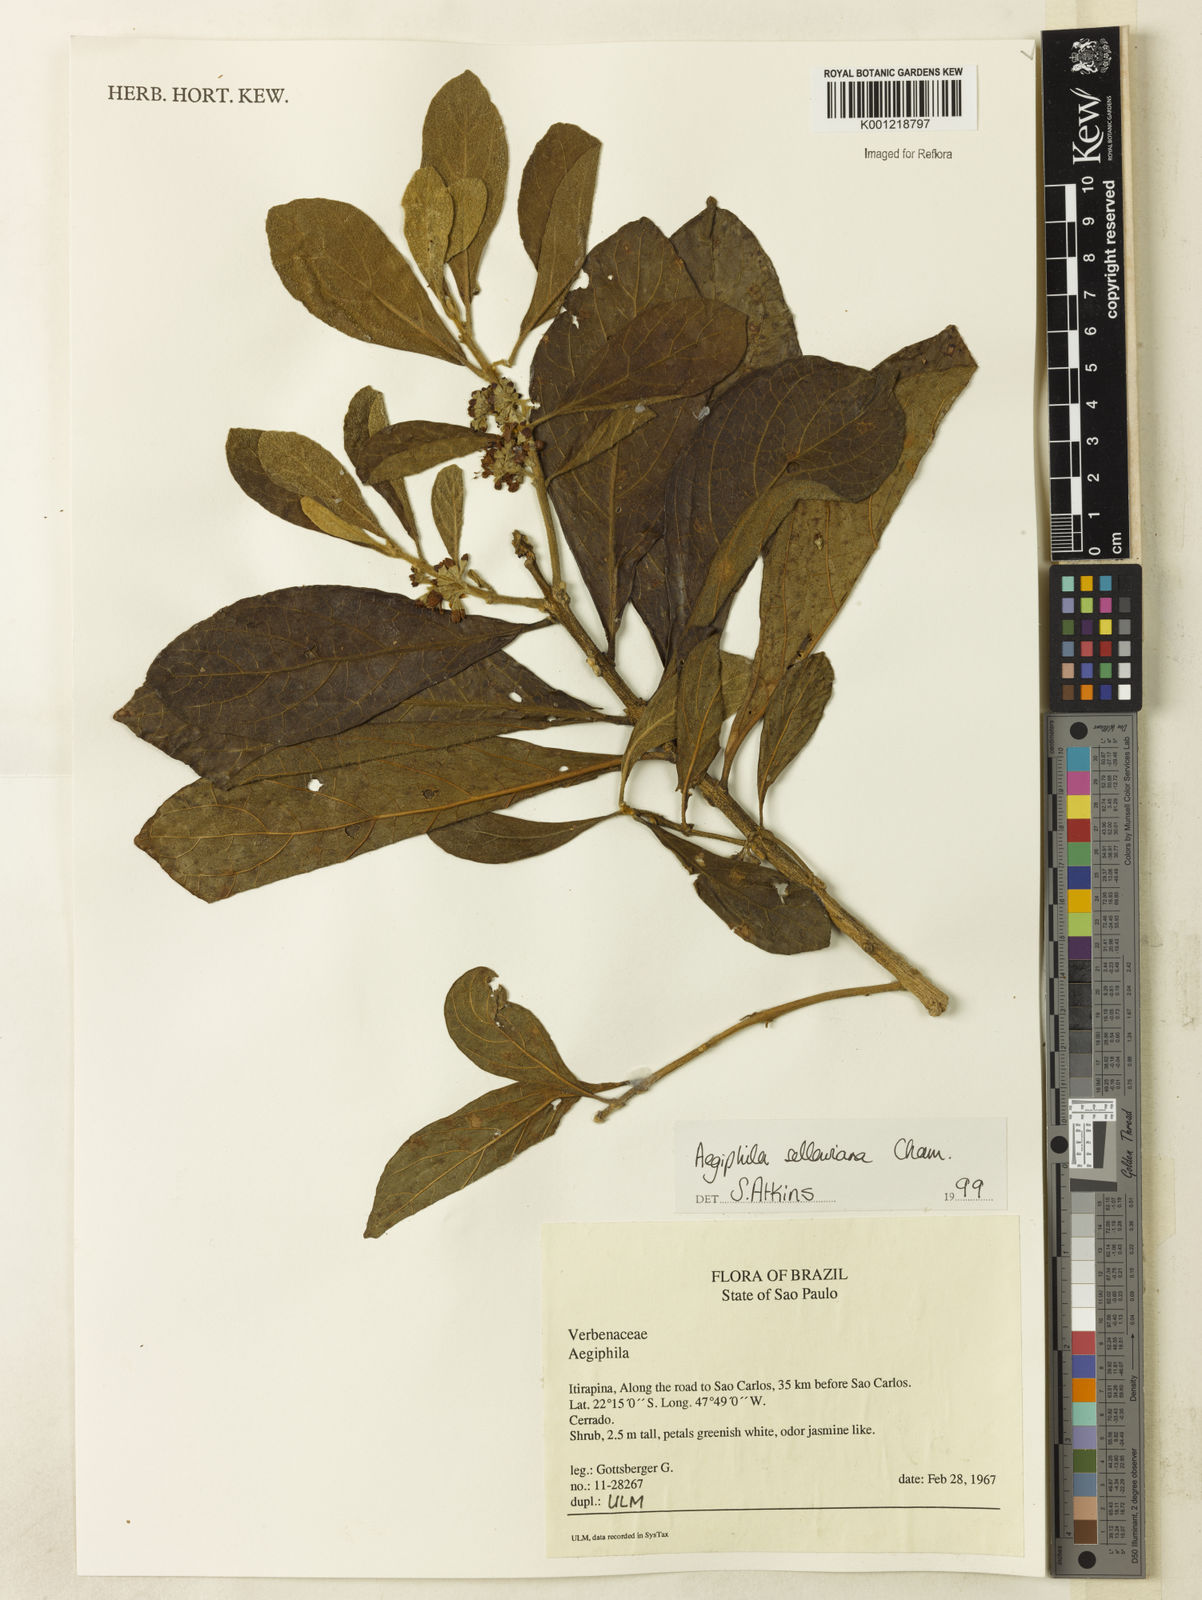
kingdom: Plantae
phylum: Tracheophyta
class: Magnoliopsida
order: Lamiales
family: Lamiaceae
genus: Aegiphila
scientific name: Aegiphila verticillata
